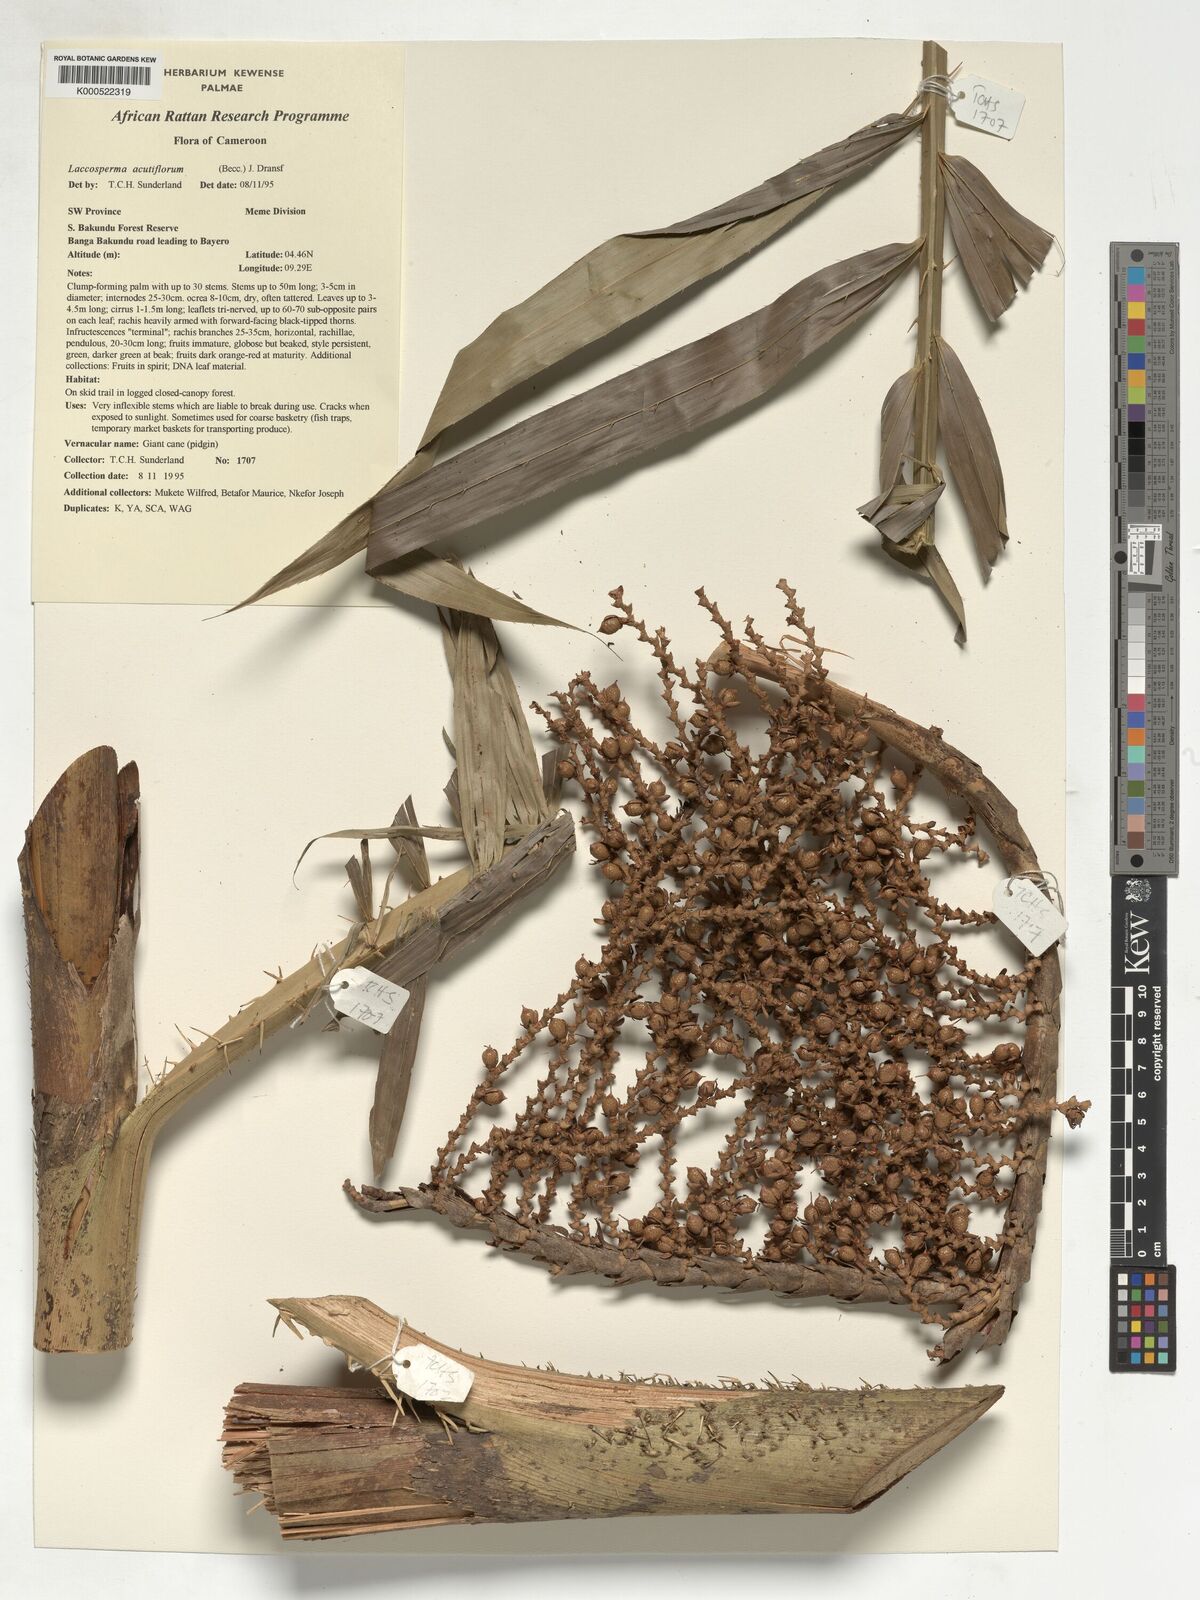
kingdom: Plantae
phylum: Tracheophyta
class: Liliopsida
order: Arecales
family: Arecaceae
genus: Laccosperma
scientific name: Laccosperma acutiflorum
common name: Rattan
